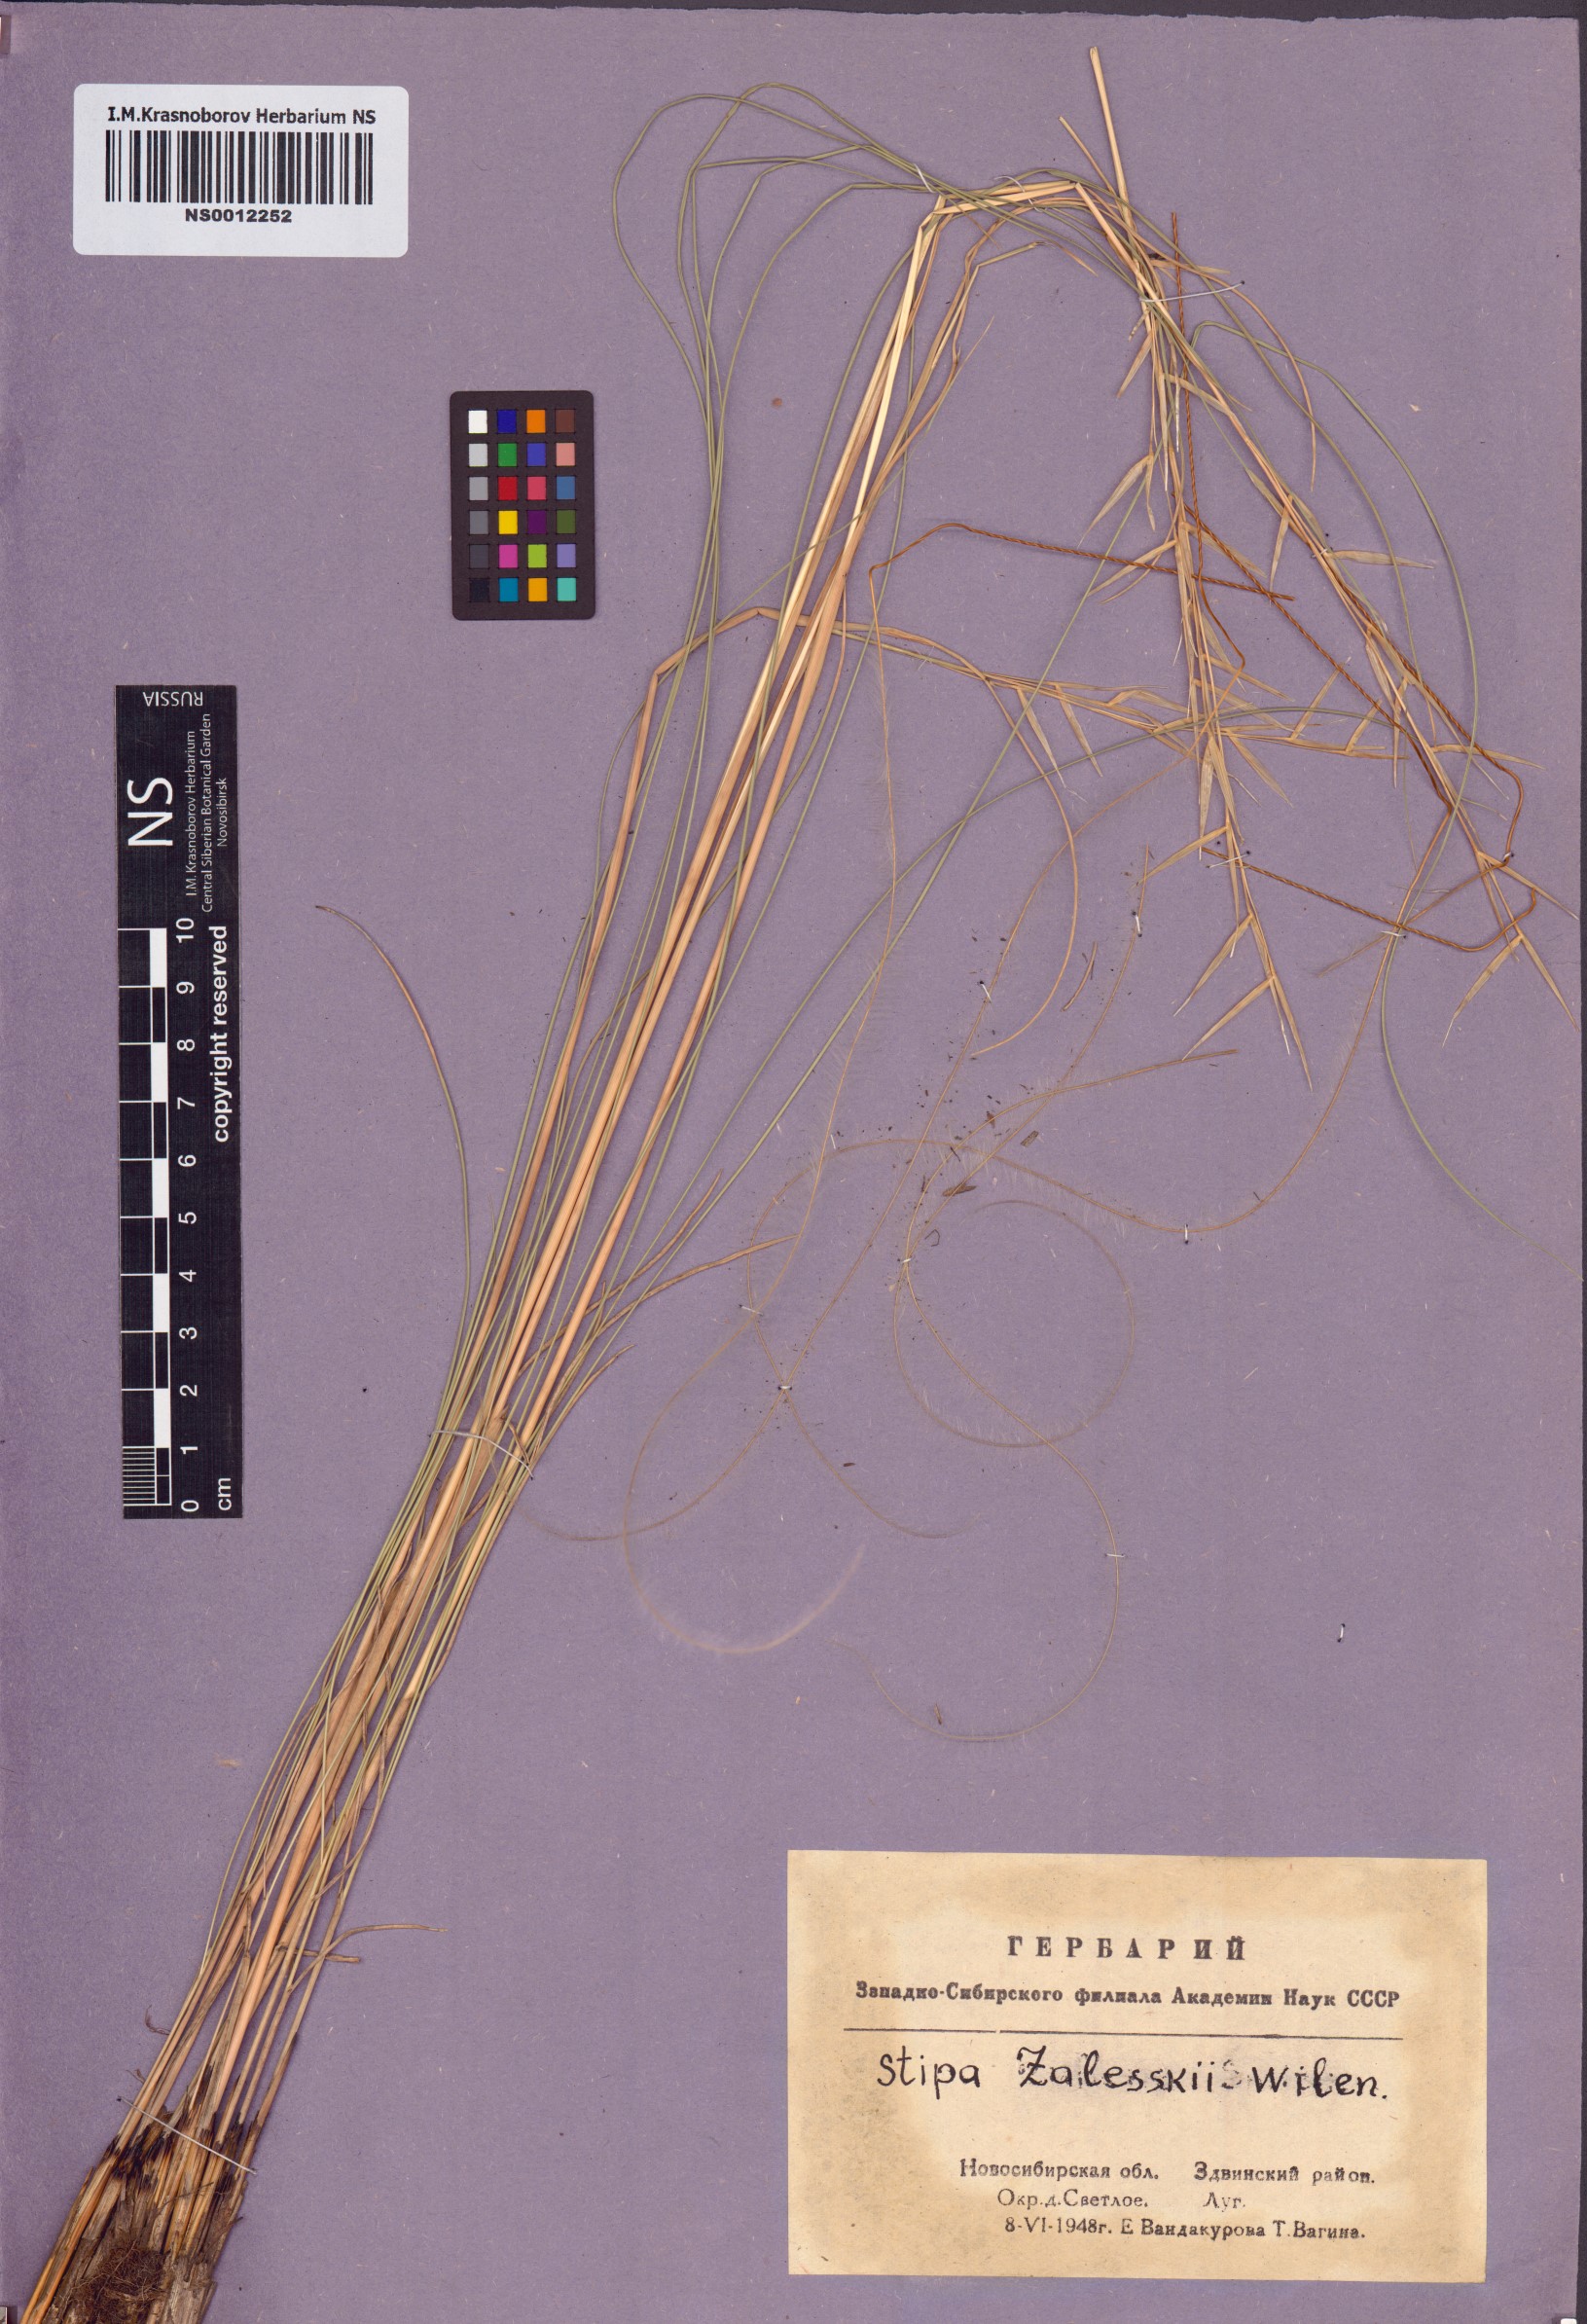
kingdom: Plantae
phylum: Tracheophyta
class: Liliopsida
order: Poales
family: Poaceae
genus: Stipa
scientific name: Stipa zalesskii
